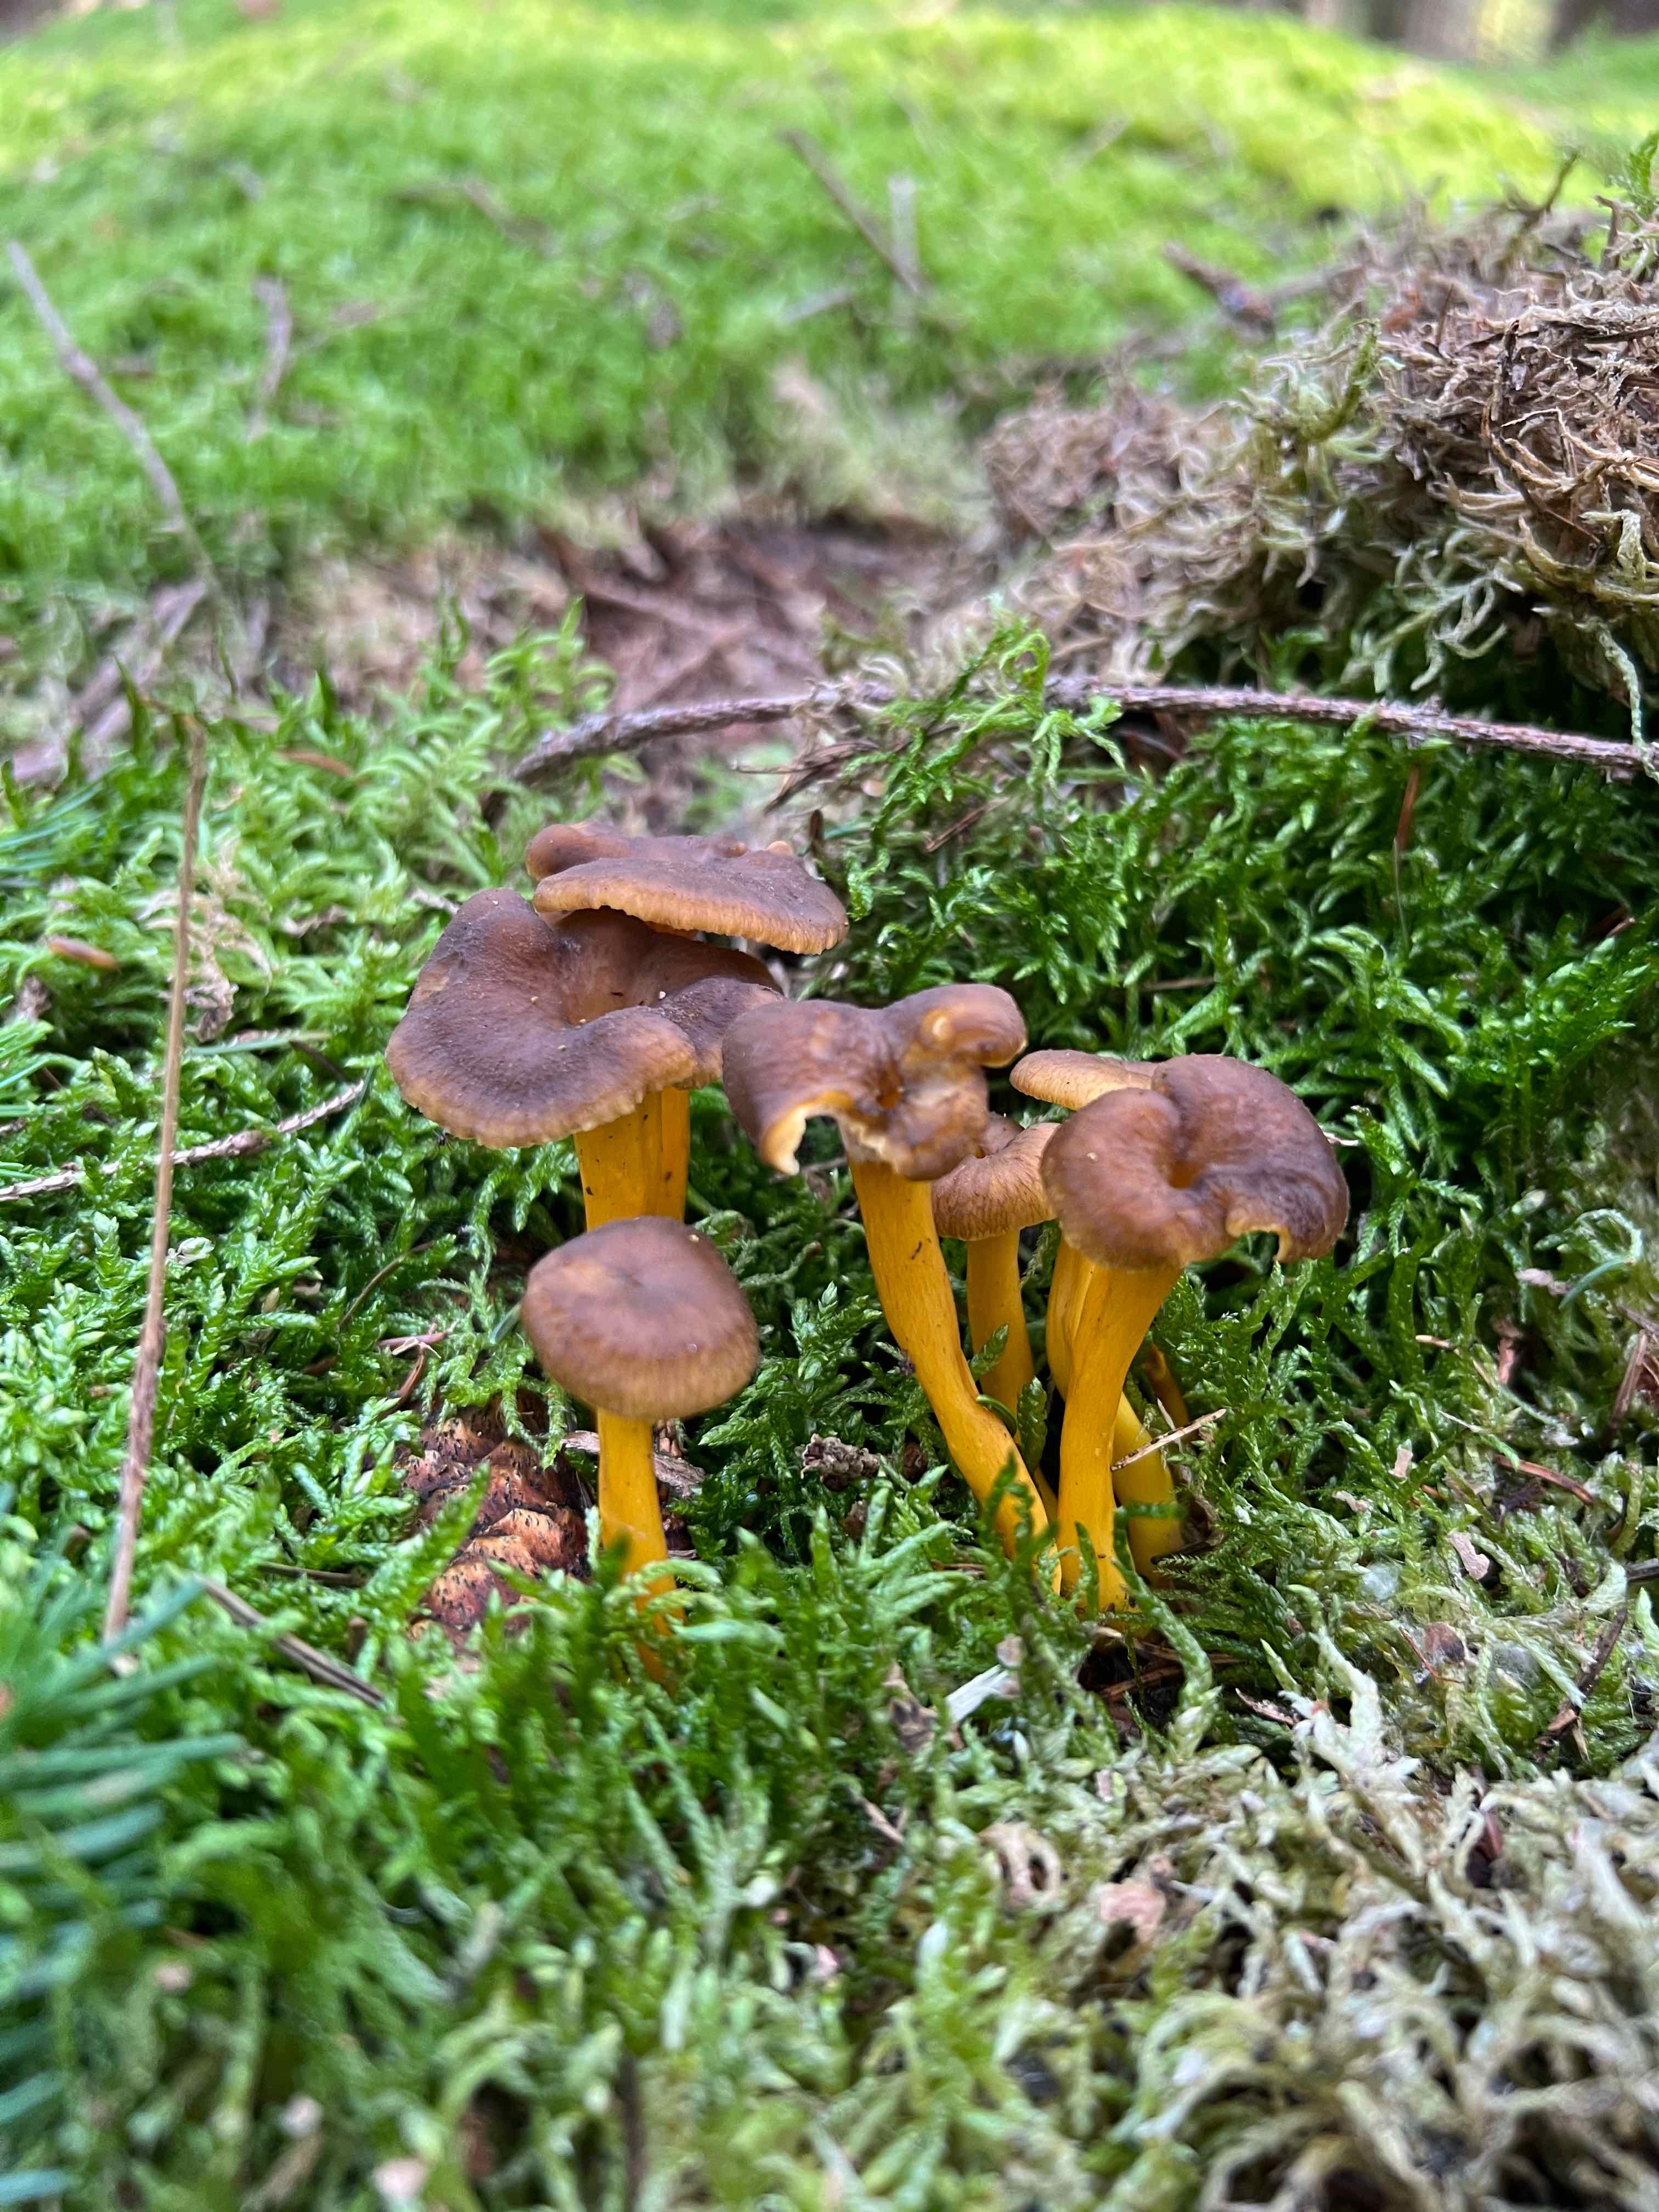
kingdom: Fungi
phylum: Basidiomycota
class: Agaricomycetes
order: Cantharellales
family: Hydnaceae
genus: Craterellus
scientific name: Craterellus tubaeformis
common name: tragt-kantarel
